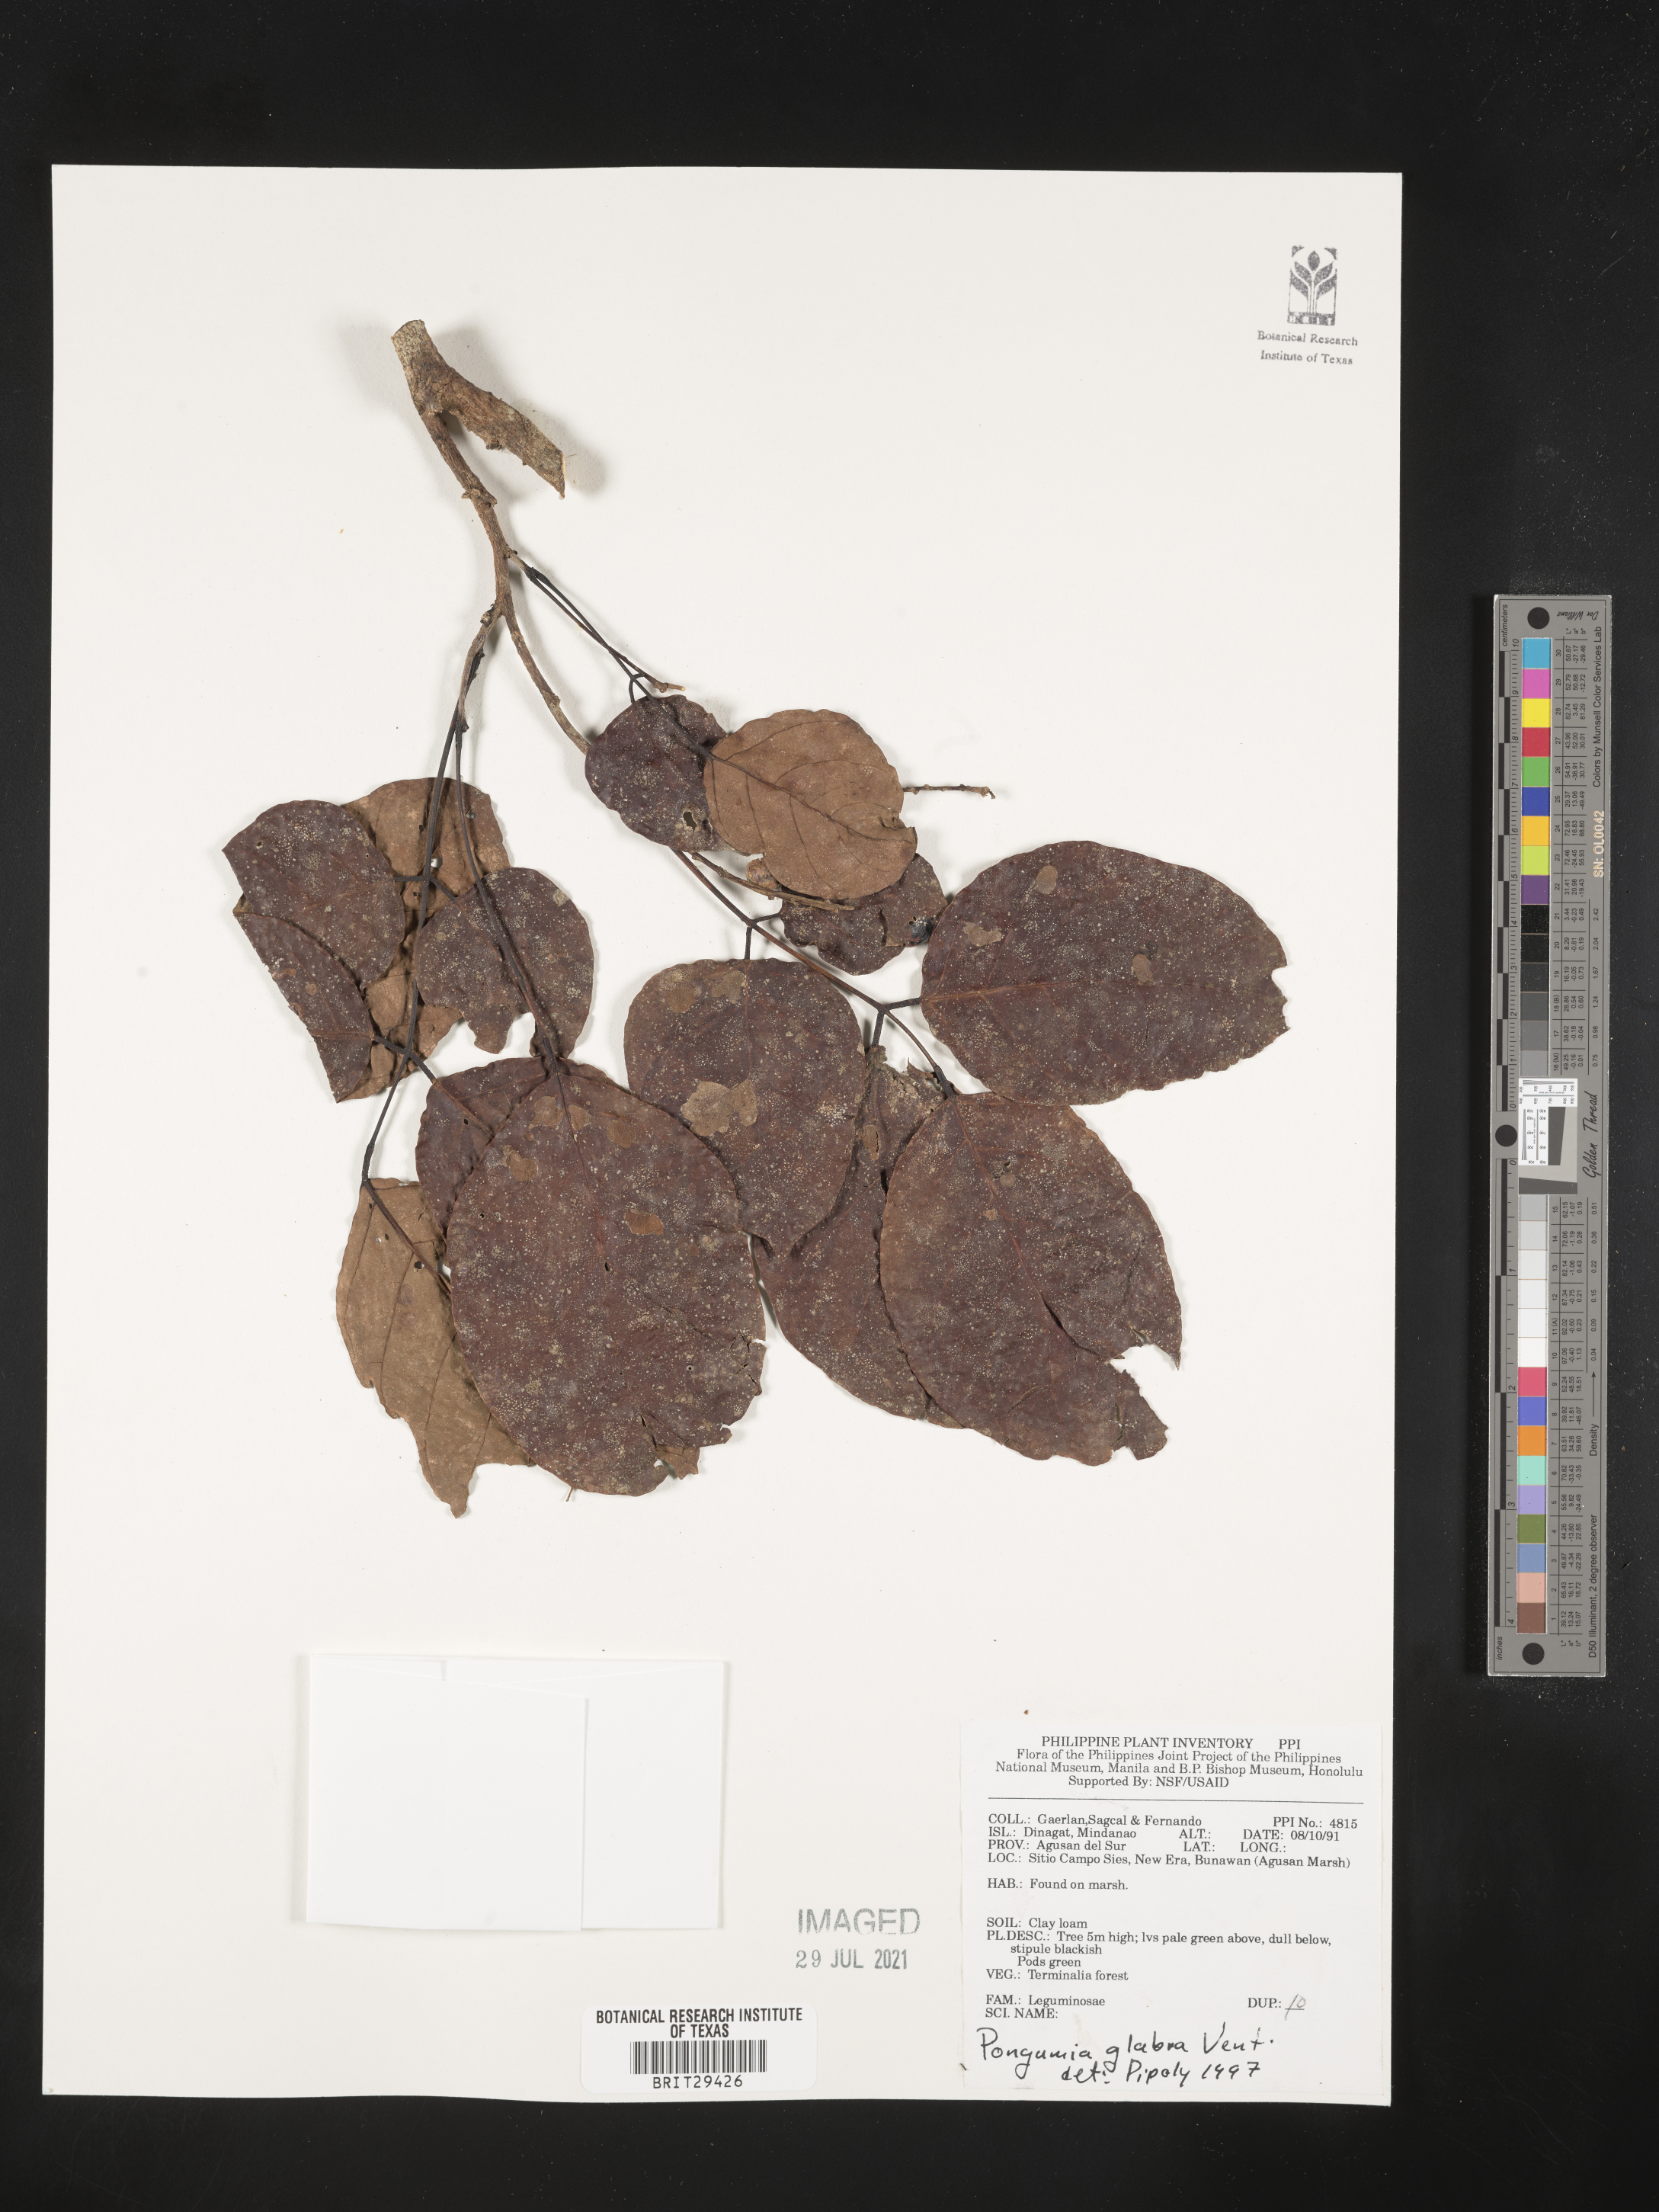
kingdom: Plantae
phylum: Tracheophyta
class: Magnoliopsida
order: Fabales
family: Fabaceae
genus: Pongamia
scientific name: Pongamia pinnata
